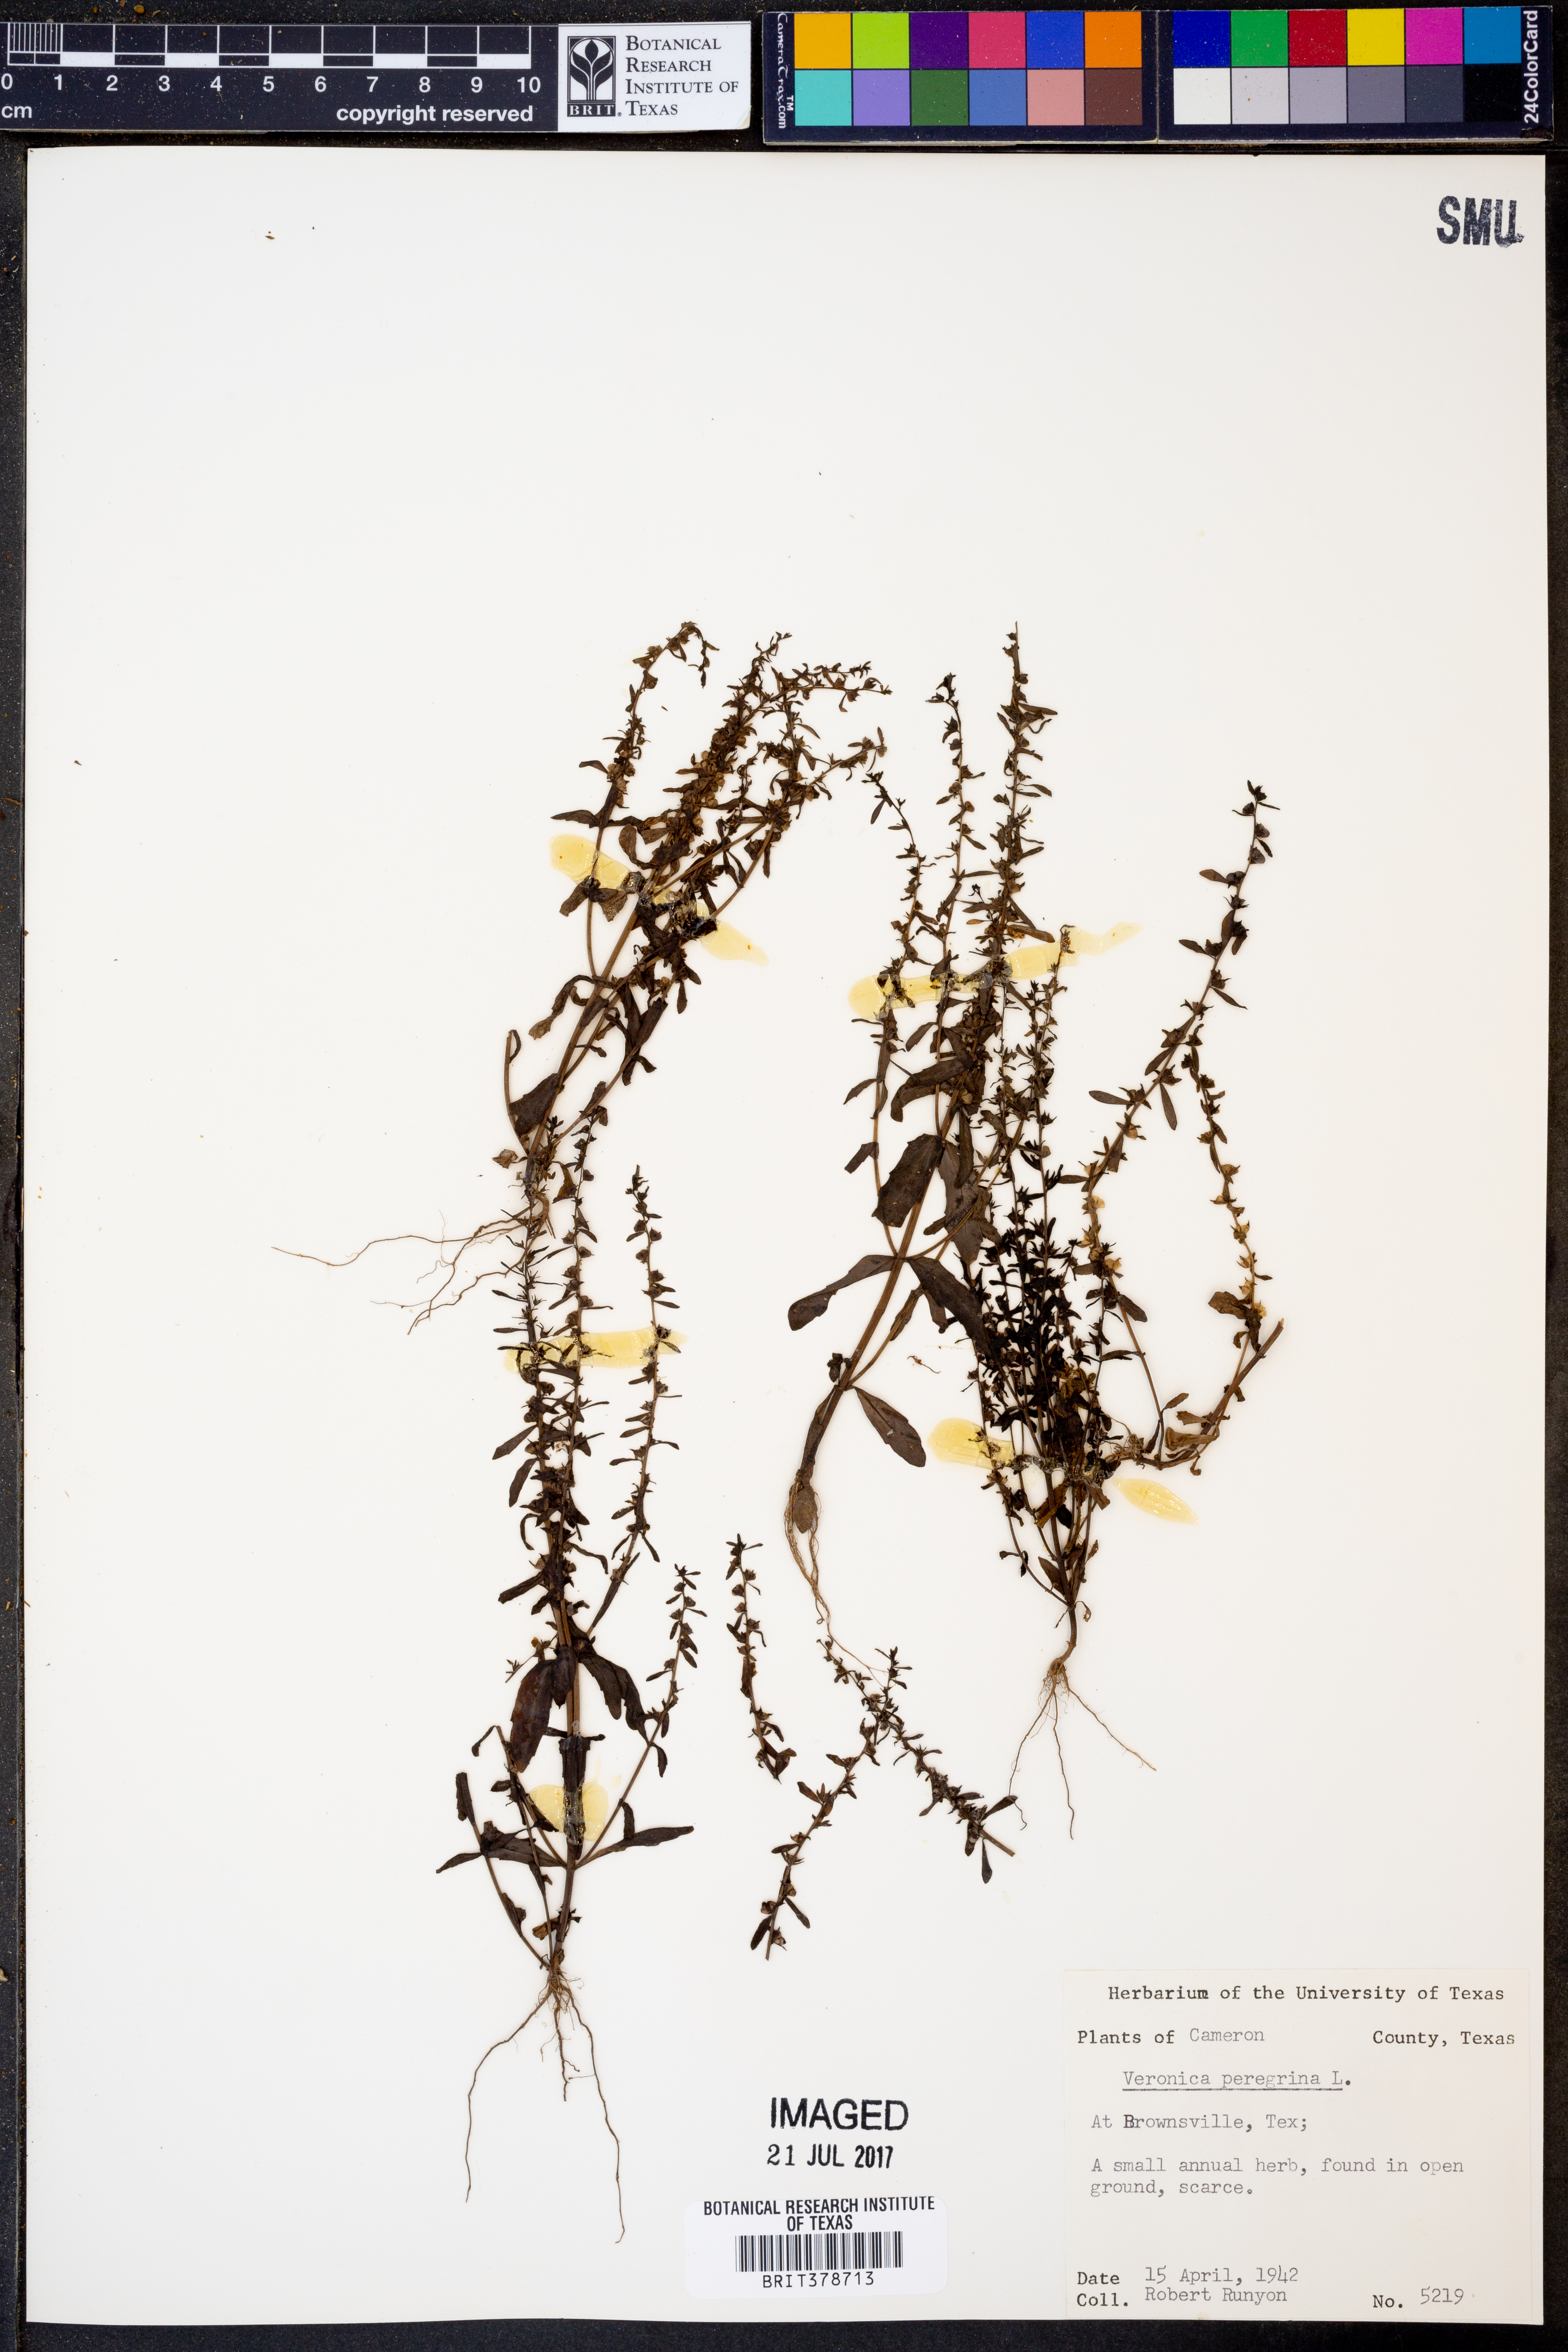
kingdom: Plantae
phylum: Tracheophyta
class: Magnoliopsida
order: Lamiales
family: Plantaginaceae
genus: Veronica
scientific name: Veronica peregrina
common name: Neckweed
